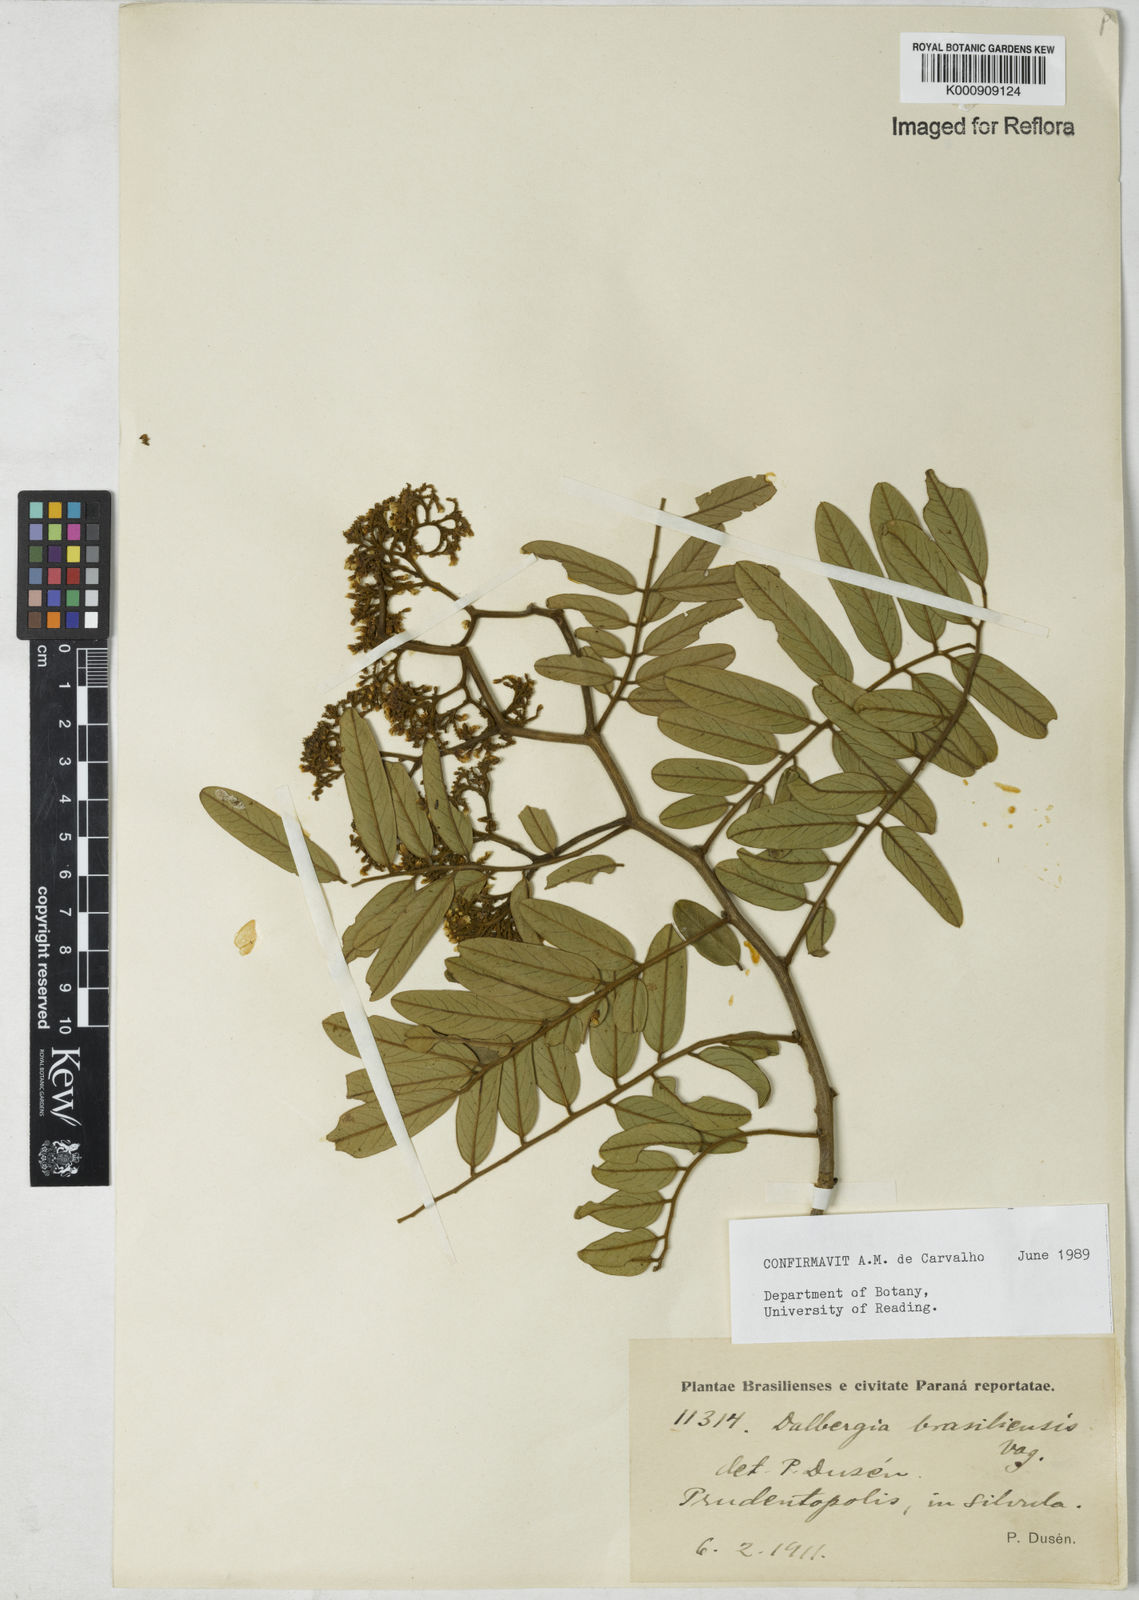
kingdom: Plantae
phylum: Tracheophyta
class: Magnoliopsida
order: Fabales
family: Fabaceae
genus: Dalbergia
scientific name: Dalbergia brasiliensis
